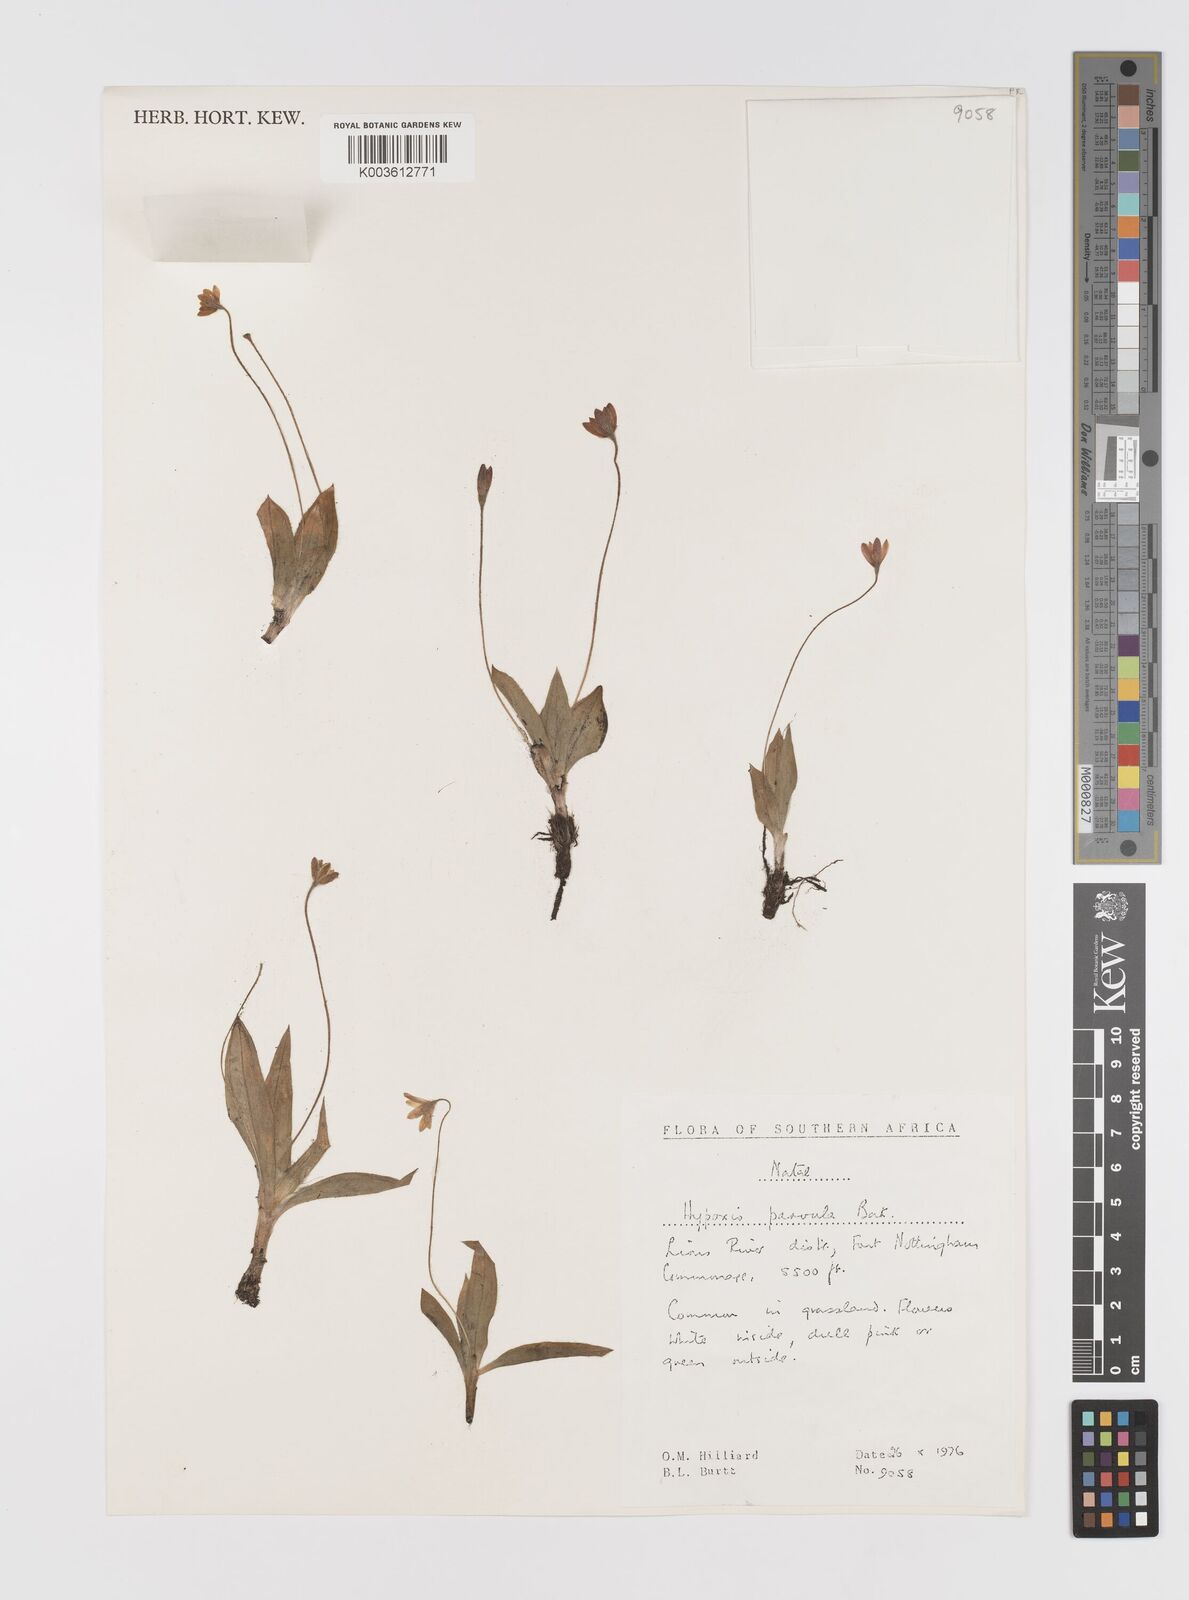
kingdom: Plantae
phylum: Tracheophyta
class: Liliopsida
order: Asparagales
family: Hypoxidaceae
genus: Hypoxis
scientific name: Hypoxis parvula
